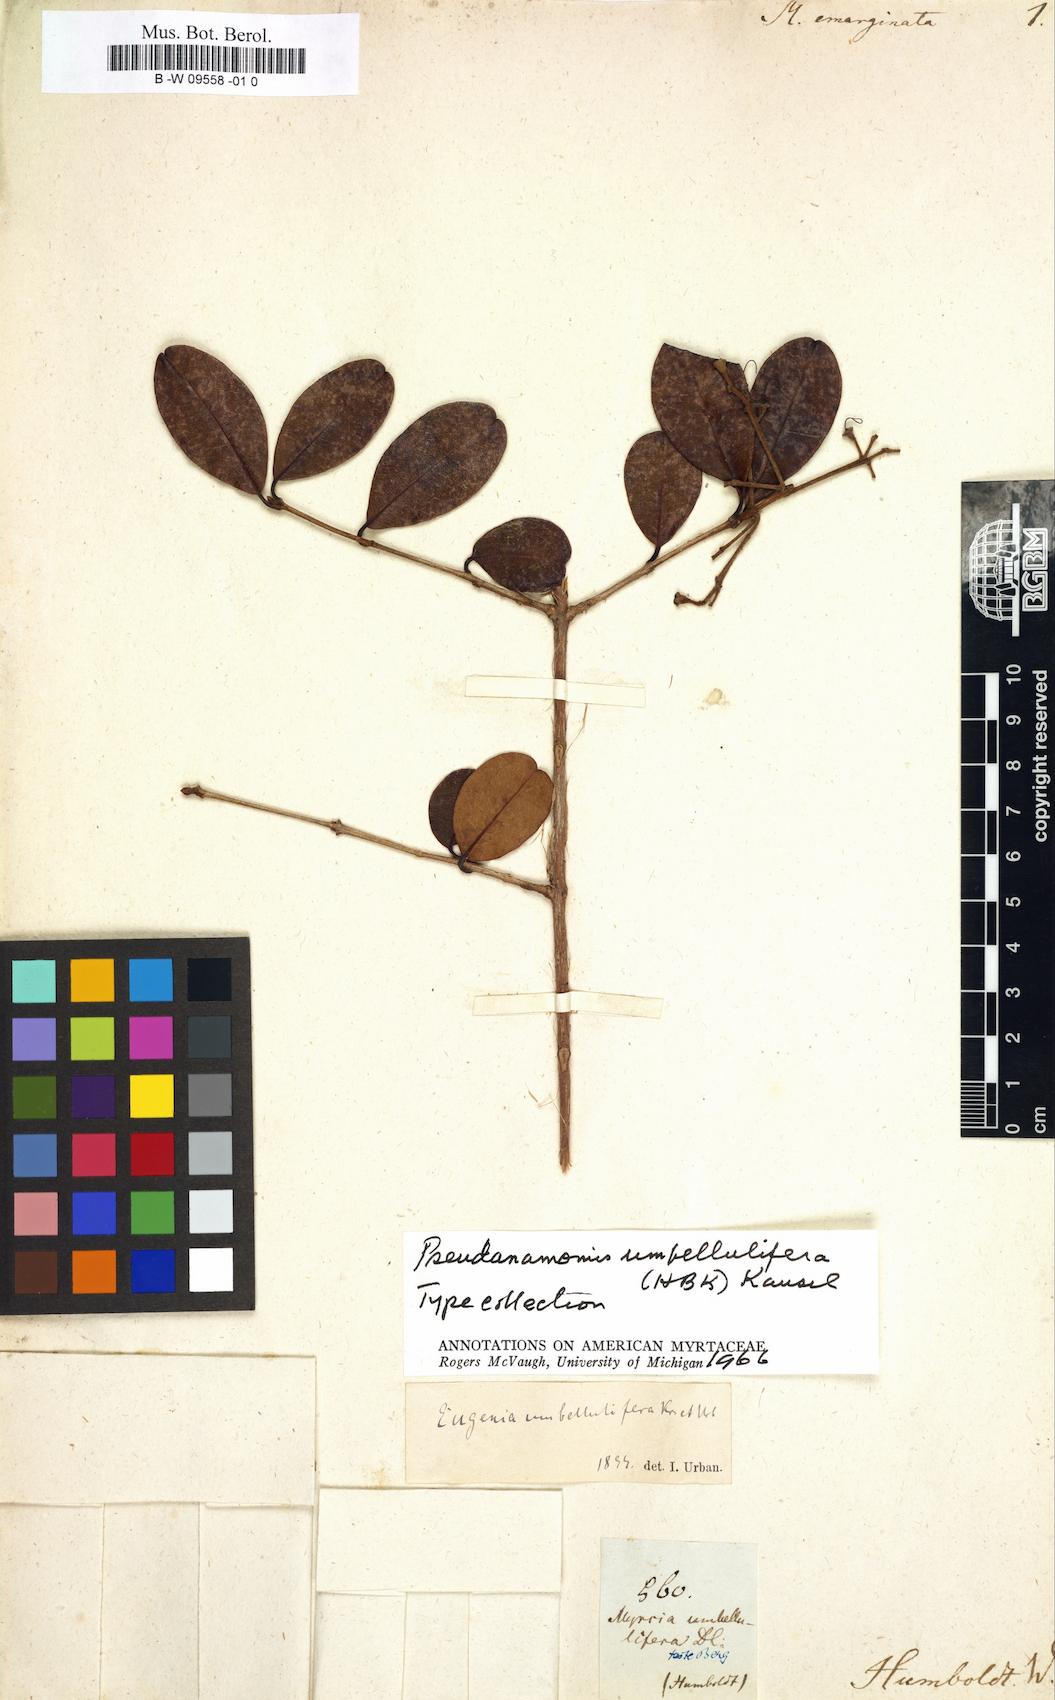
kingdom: Plantae
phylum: Tracheophyta
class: Magnoliopsida
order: Myrtales
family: Myrtaceae
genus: Myrtus
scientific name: Myrtus emarginata
